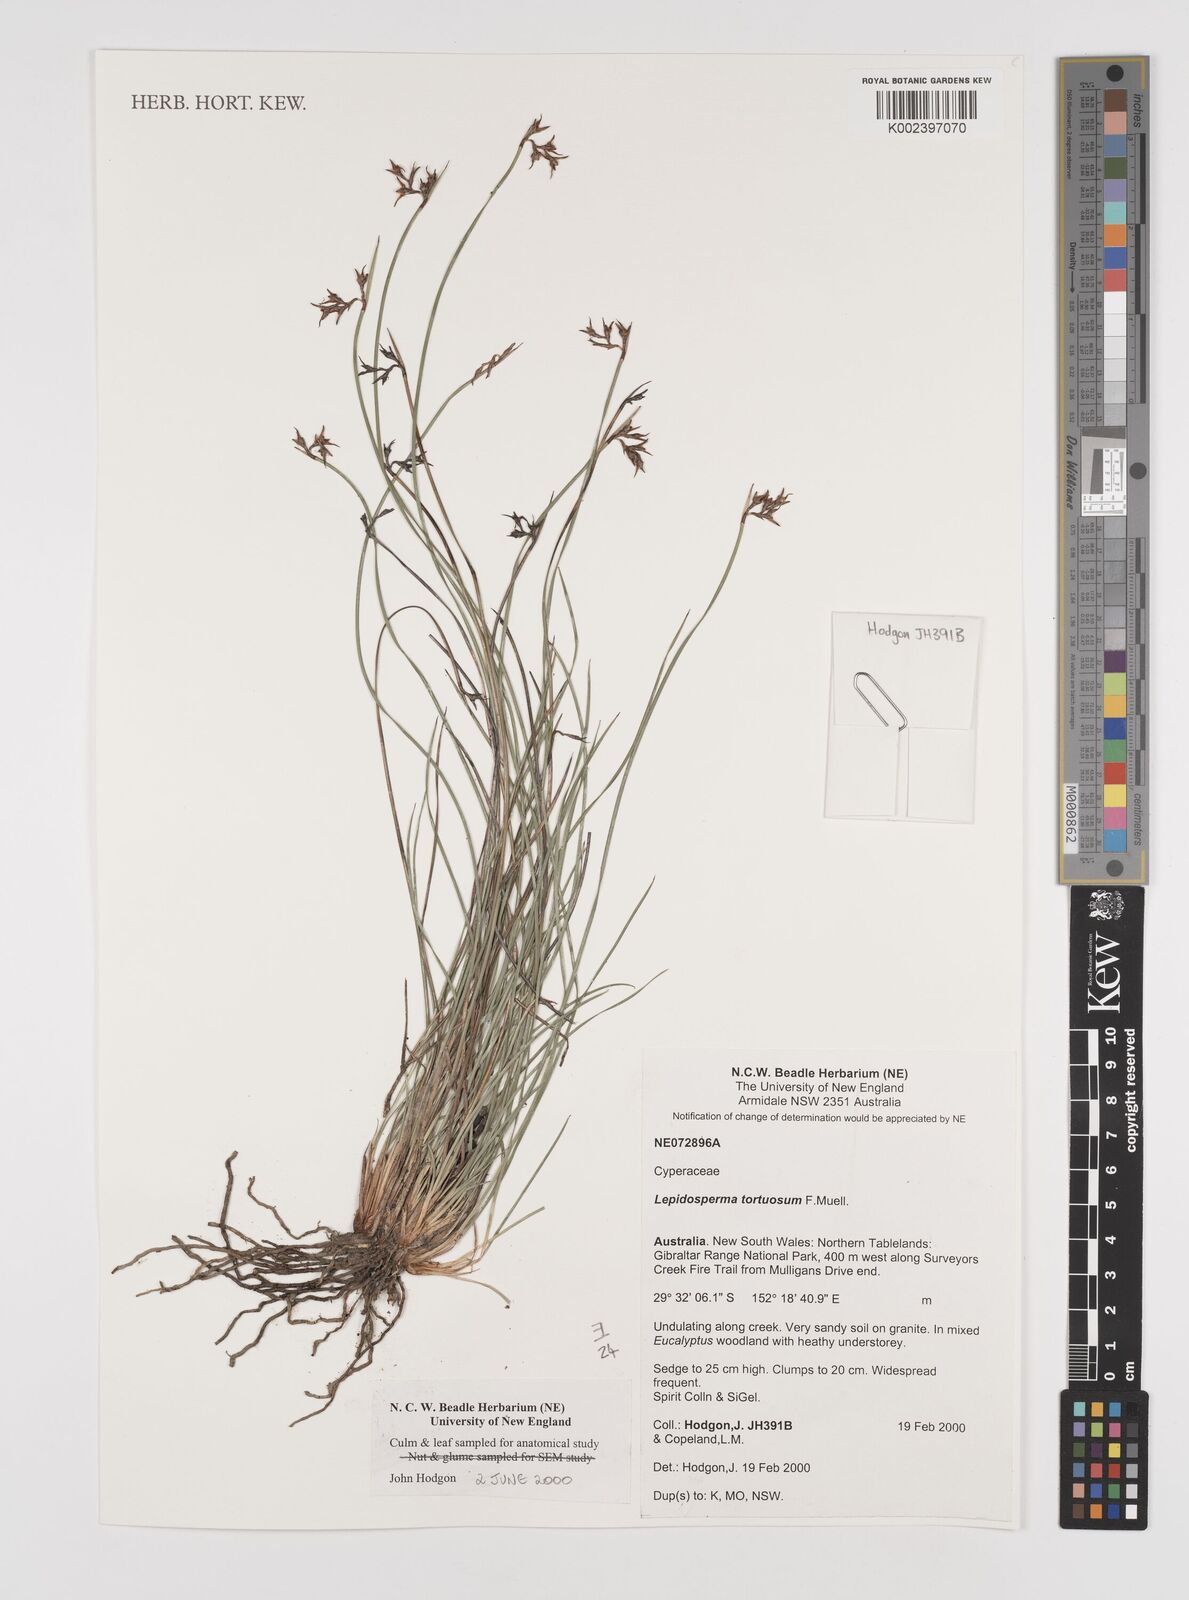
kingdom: Plantae
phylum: Tracheophyta
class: Liliopsida
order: Poales
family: Cyperaceae
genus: Lepidosperma
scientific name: Lepidosperma tortuosum
